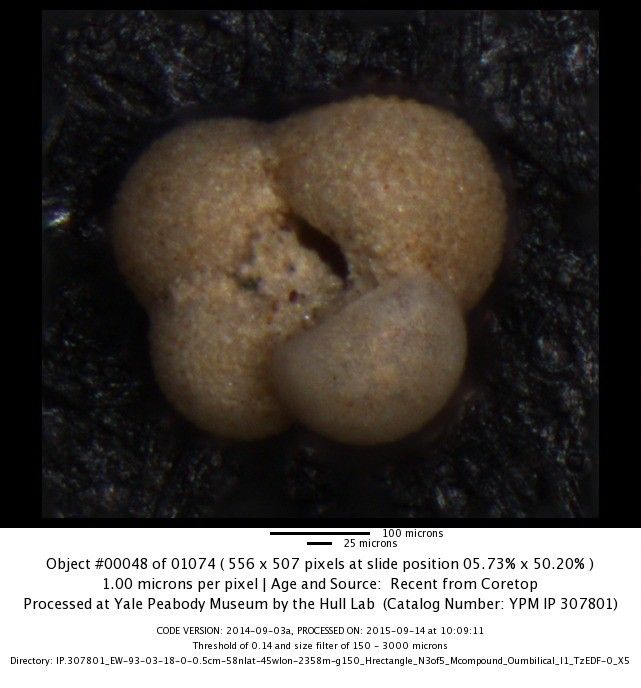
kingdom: Chromista
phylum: Foraminifera
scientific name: Foraminifera
